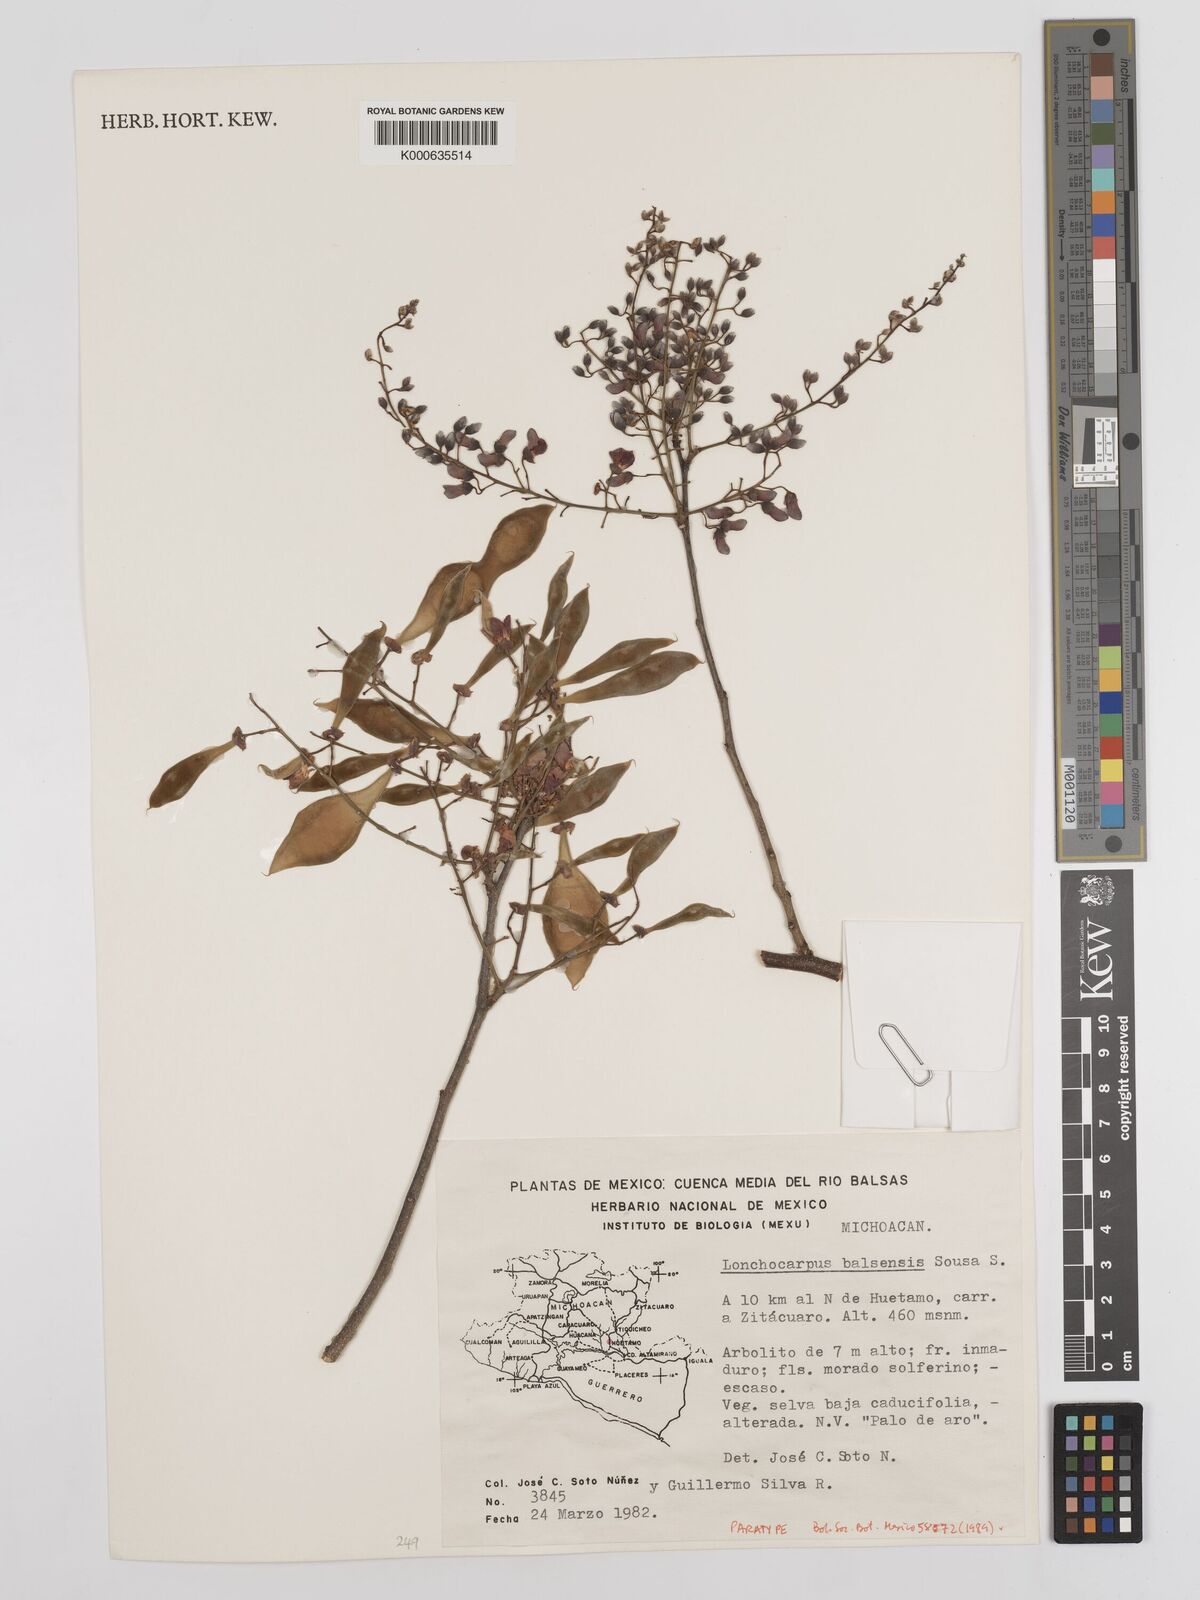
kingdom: Plantae
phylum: Tracheophyta
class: Magnoliopsida
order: Fabales
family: Fabaceae
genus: Lonchocarpus
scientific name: Lonchocarpus balsensis
